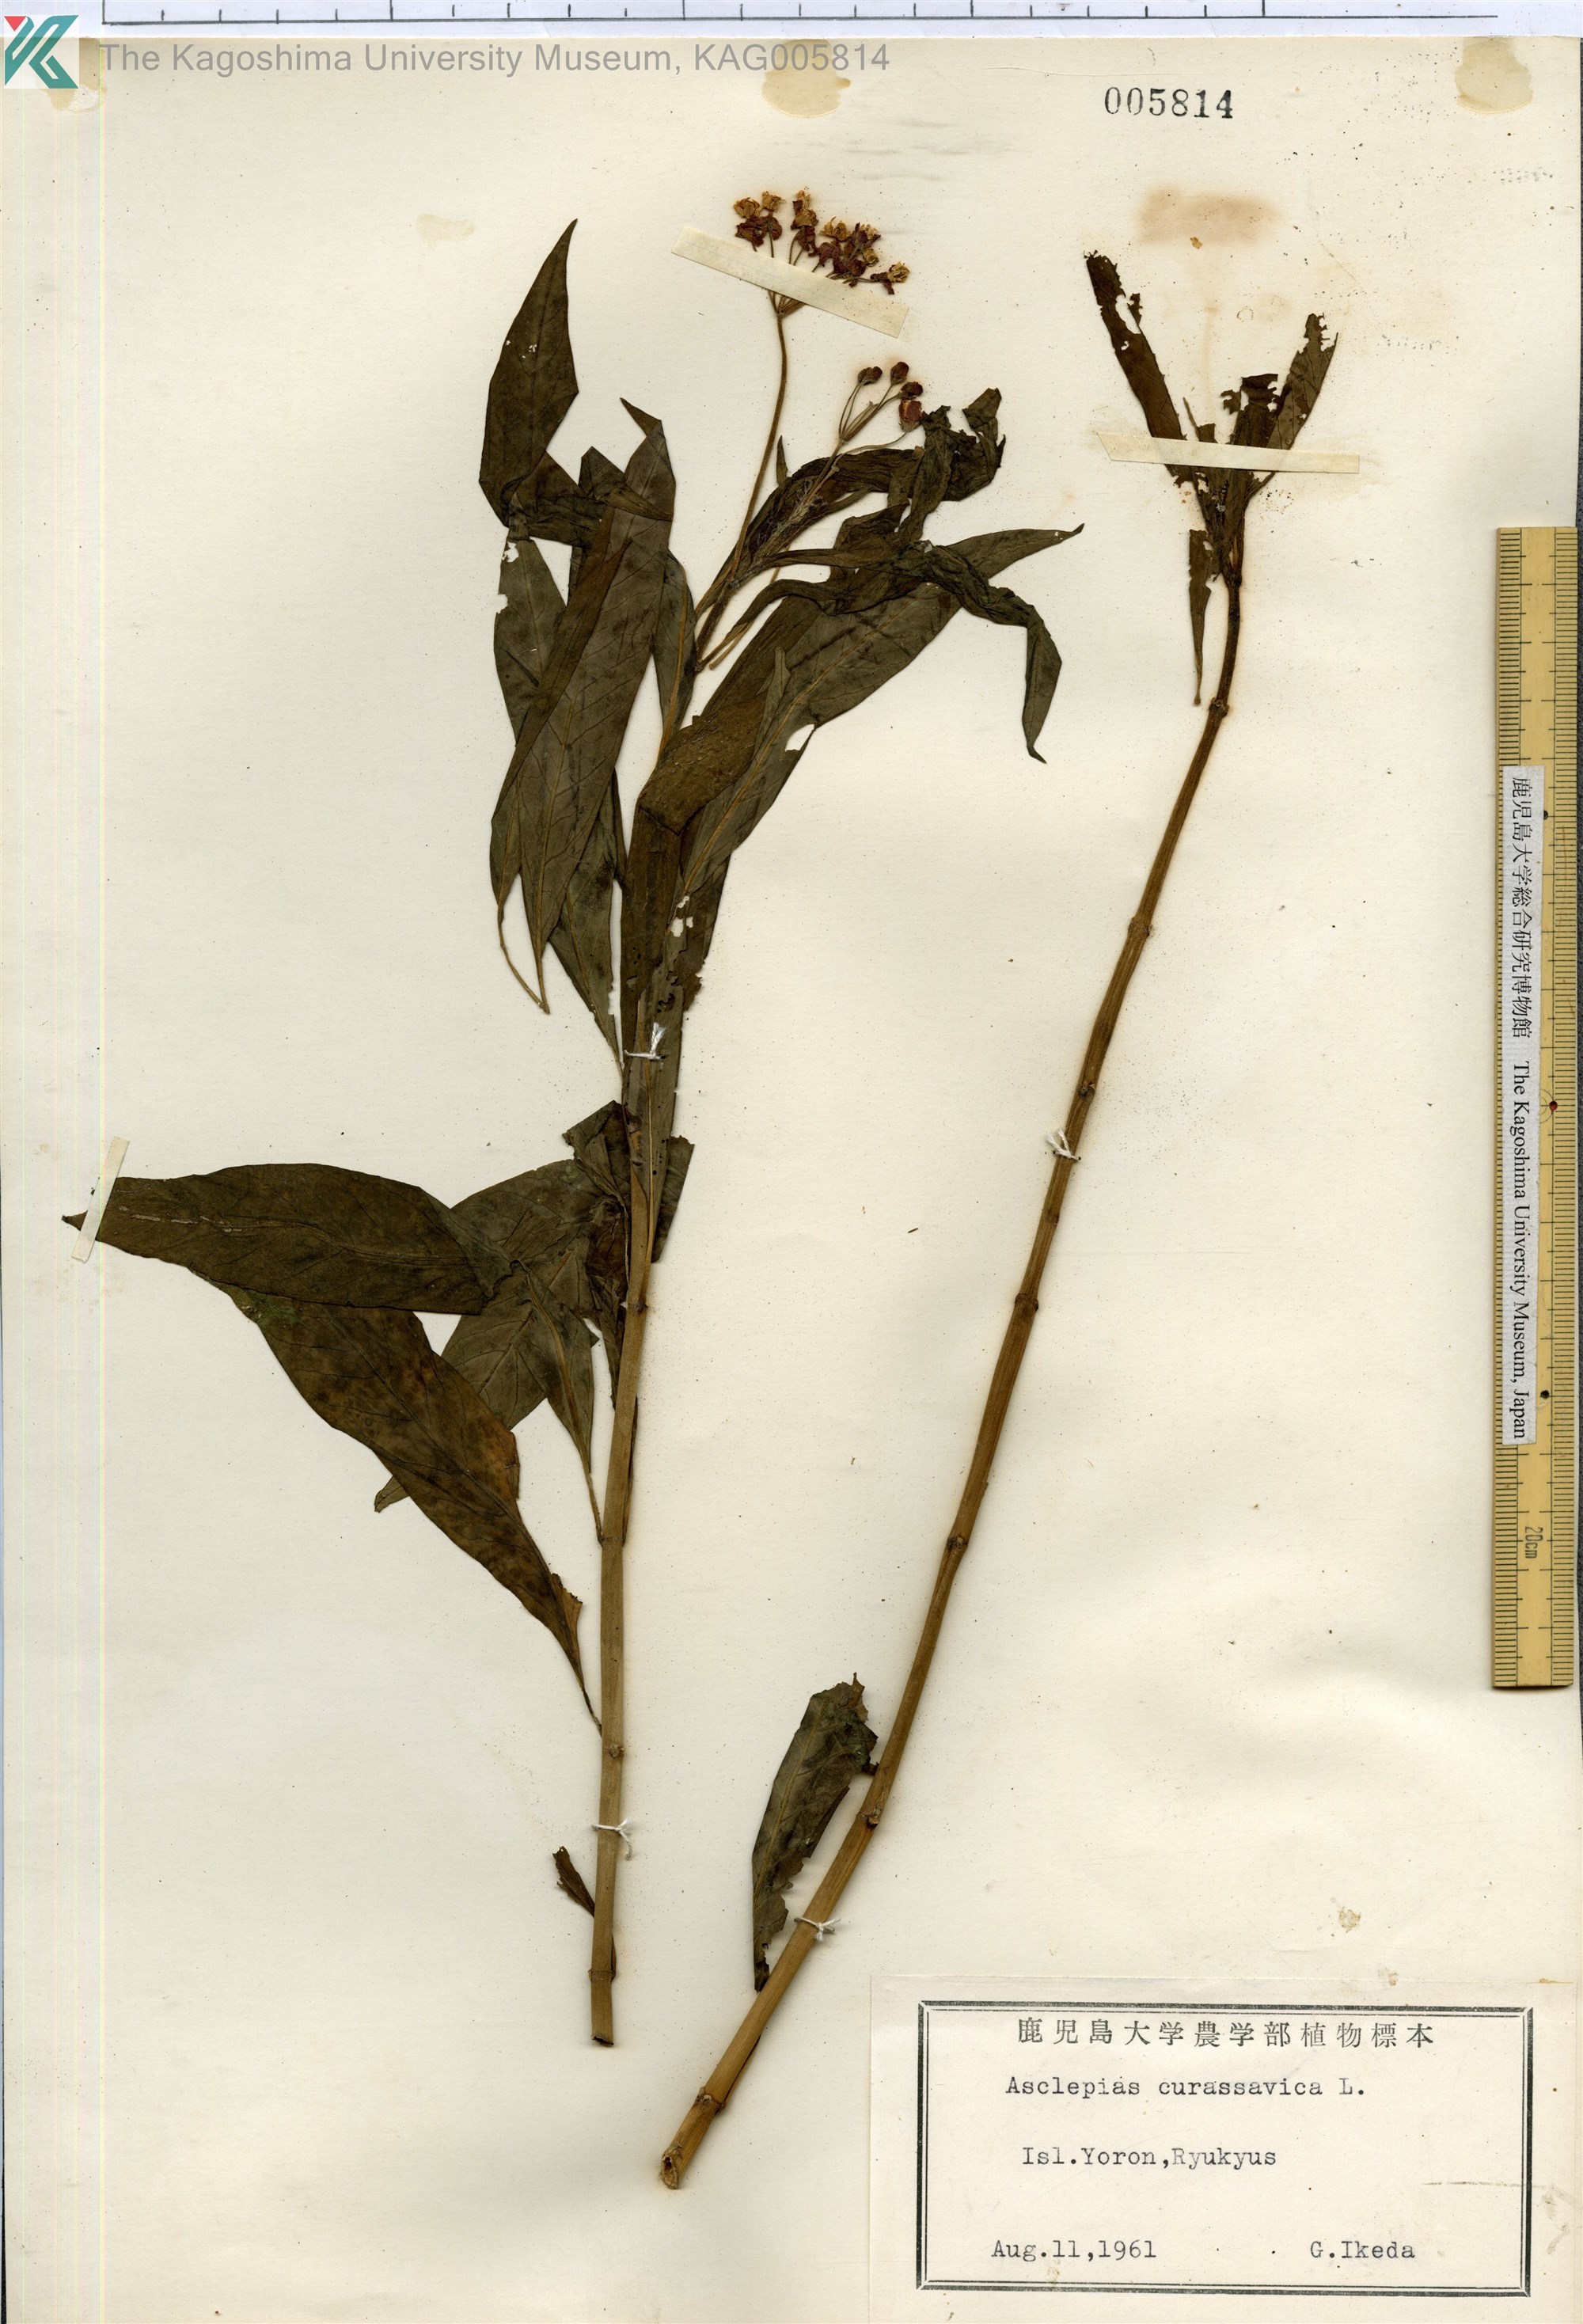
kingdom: Plantae
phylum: Tracheophyta
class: Magnoliopsida
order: Gentianales
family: Apocynaceae
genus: Asclepias
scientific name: Asclepias
